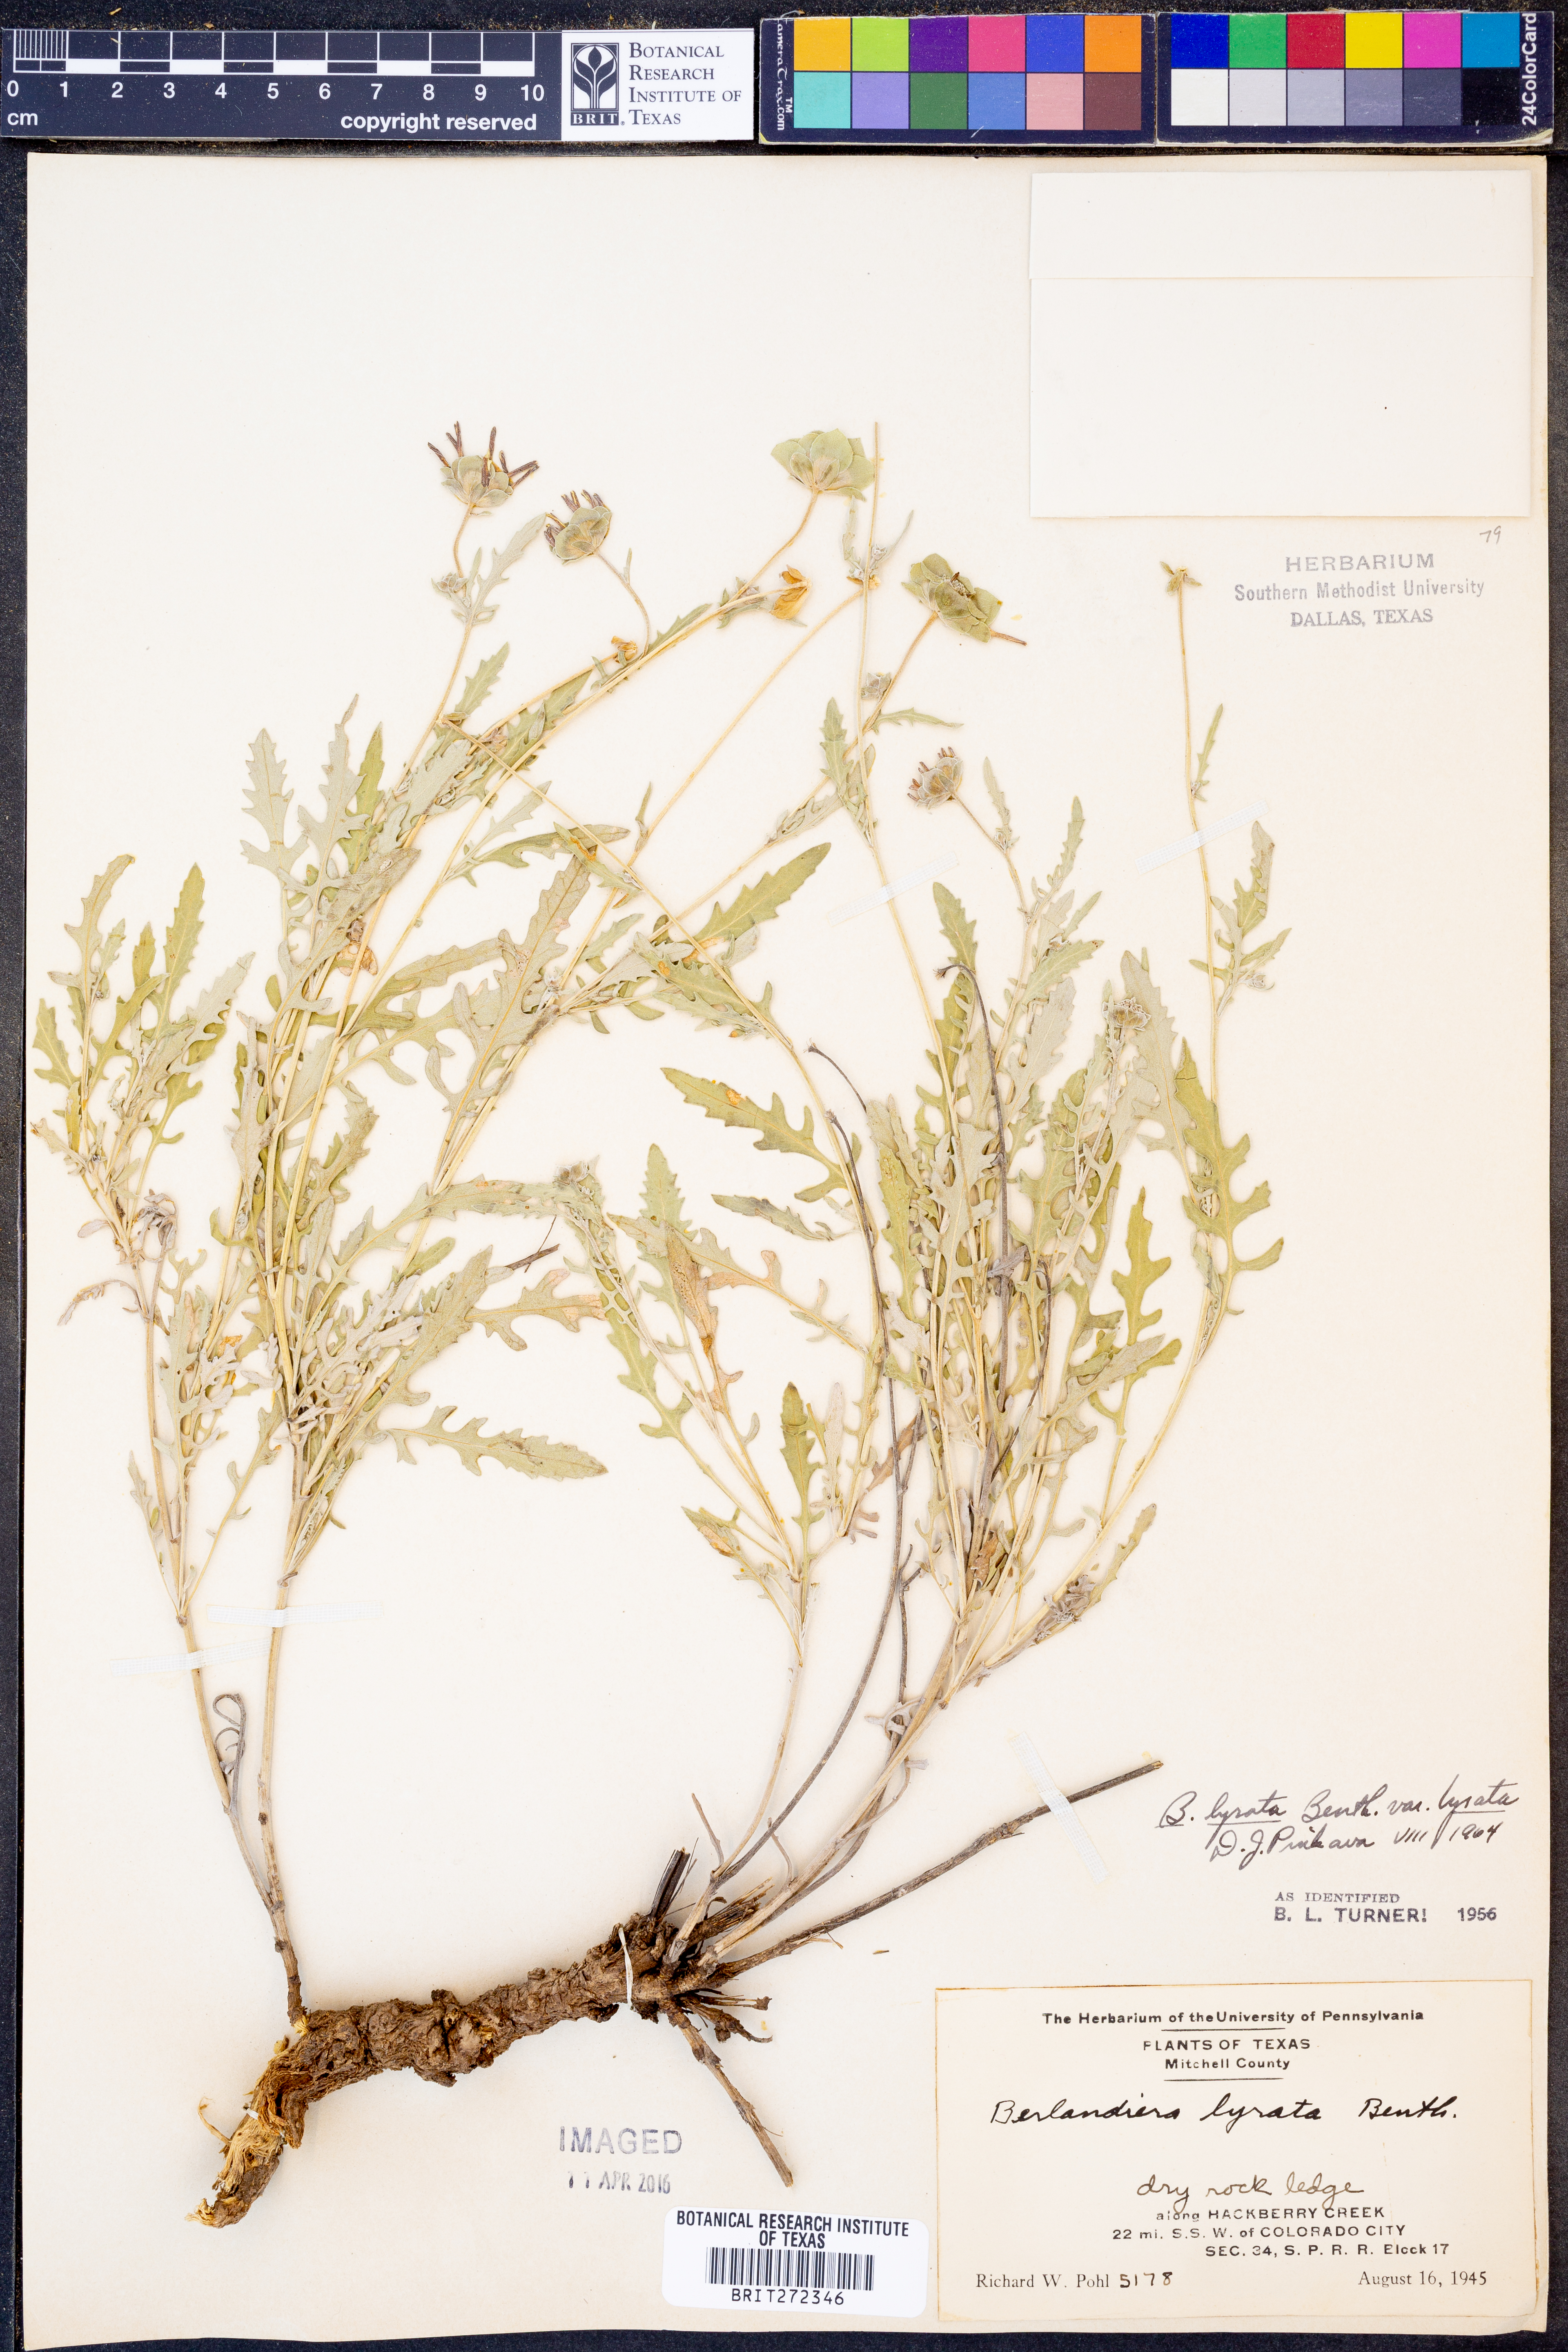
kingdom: Plantae
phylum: Tracheophyta
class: Magnoliopsida
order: Asterales
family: Asteraceae
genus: Berlandiera
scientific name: Berlandiera lyrata
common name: Chocolate-flower
